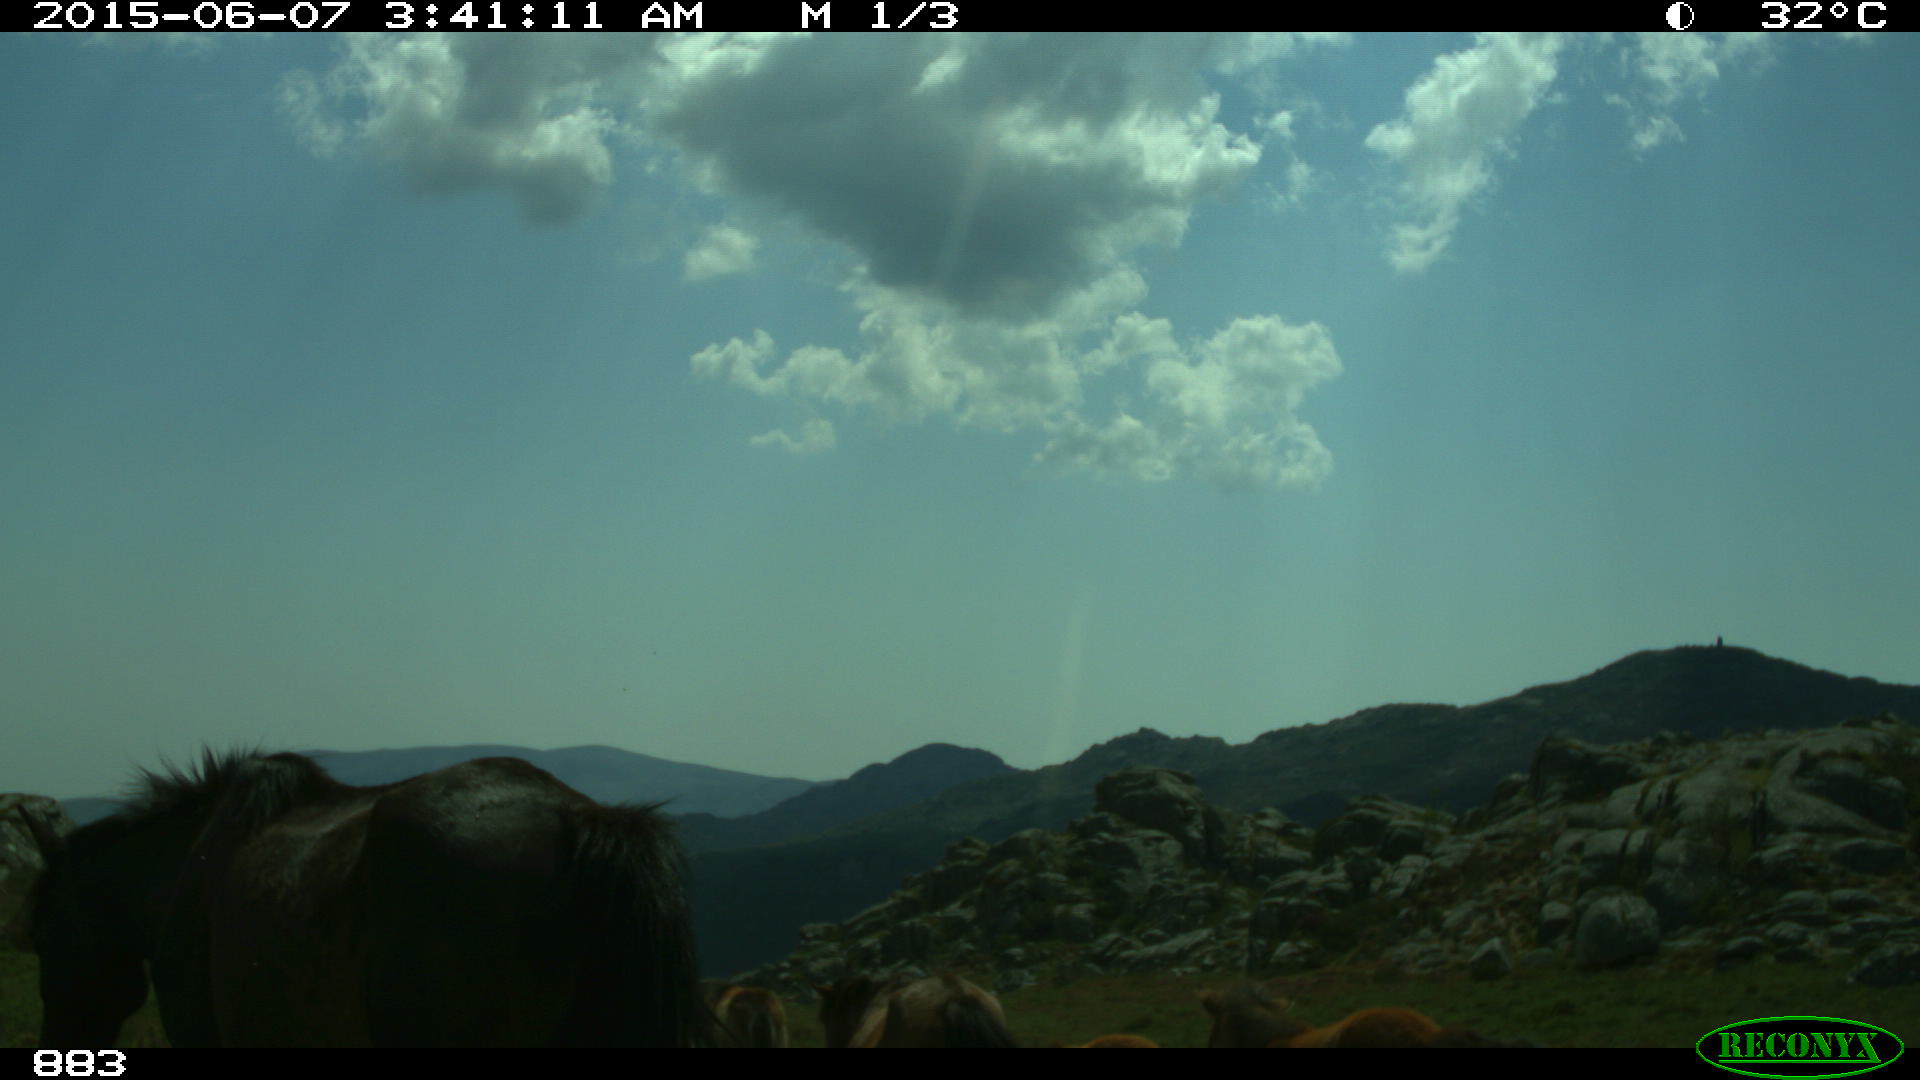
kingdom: Animalia
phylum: Chordata
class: Mammalia
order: Perissodactyla
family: Equidae
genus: Equus
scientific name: Equus caballus
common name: Horse
